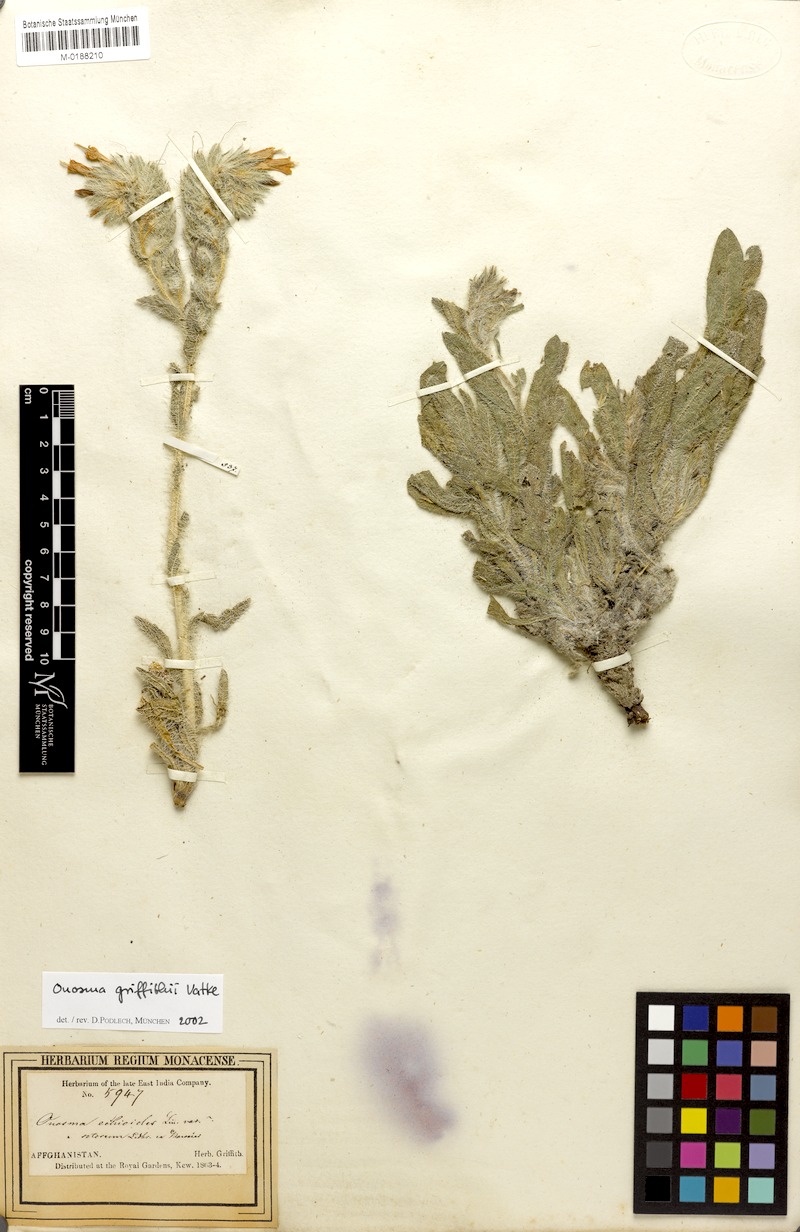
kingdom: Plantae
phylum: Tracheophyta
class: Magnoliopsida
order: Boraginales
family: Boraginaceae
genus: Onosma
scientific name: Onosma hispida
